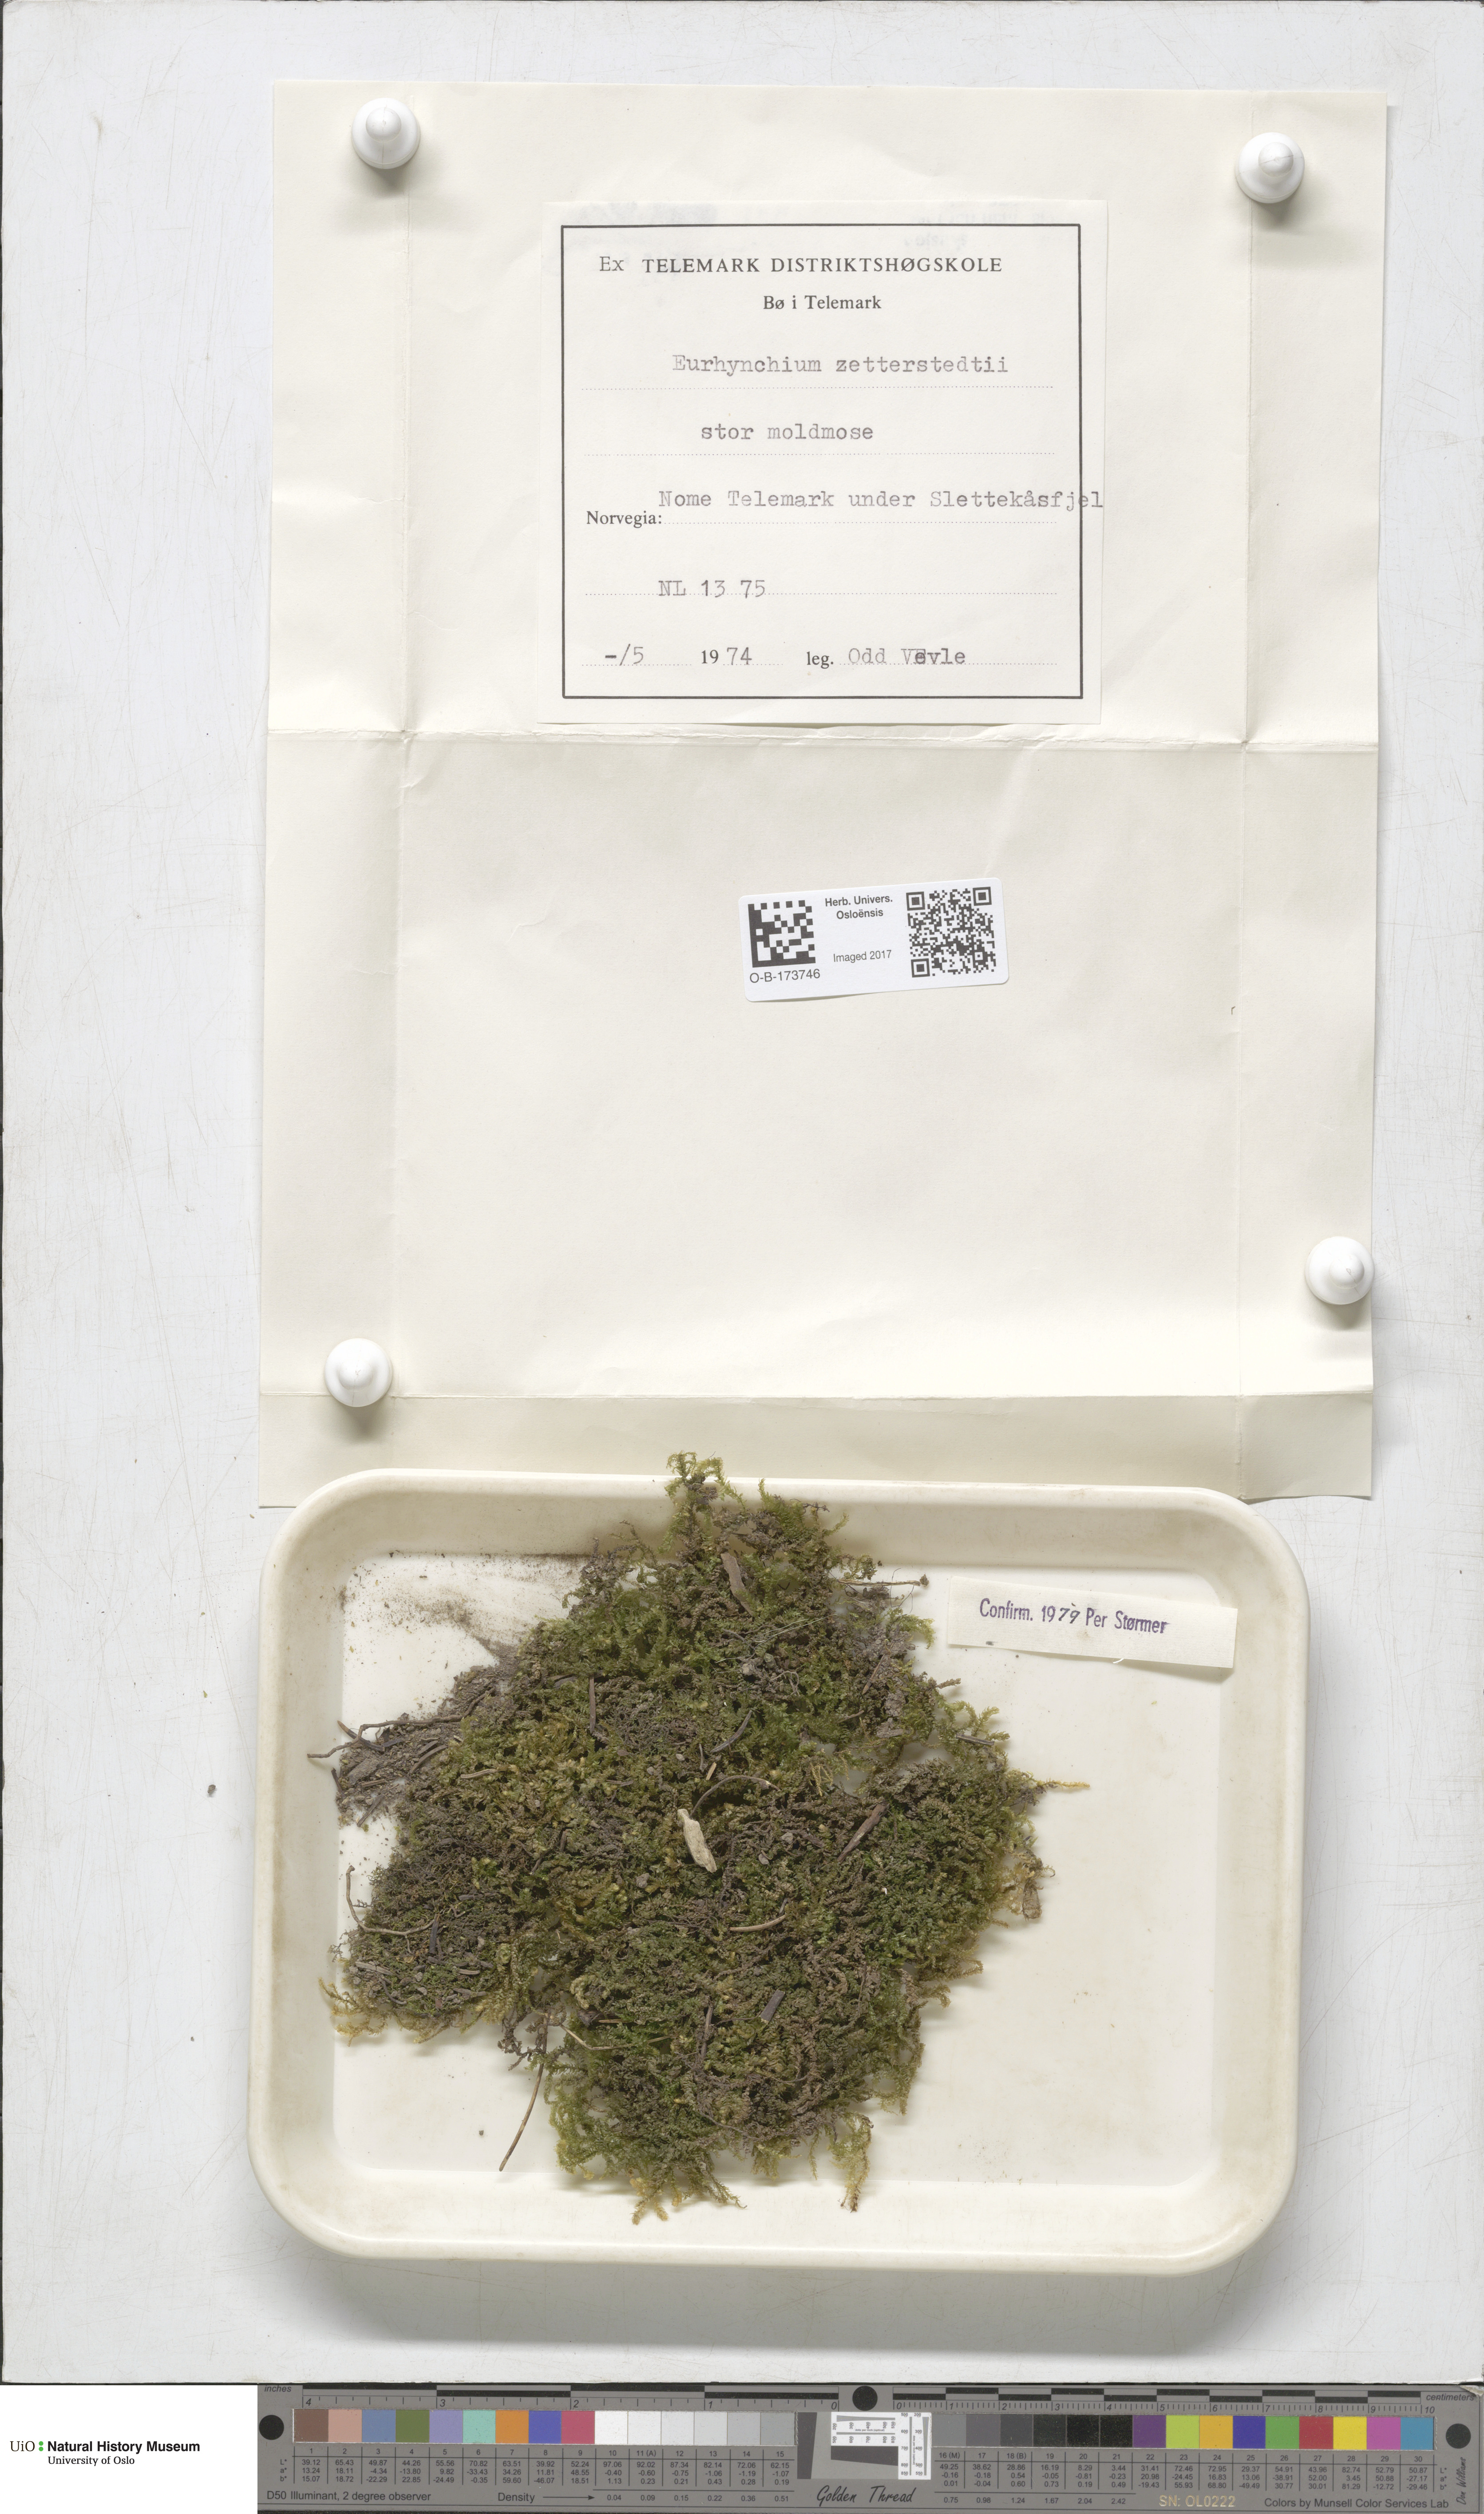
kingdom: Plantae
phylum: Bryophyta
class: Bryopsida
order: Hypnales
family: Brachytheciaceae
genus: Eurhynchium
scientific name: Eurhynchium angustirete
